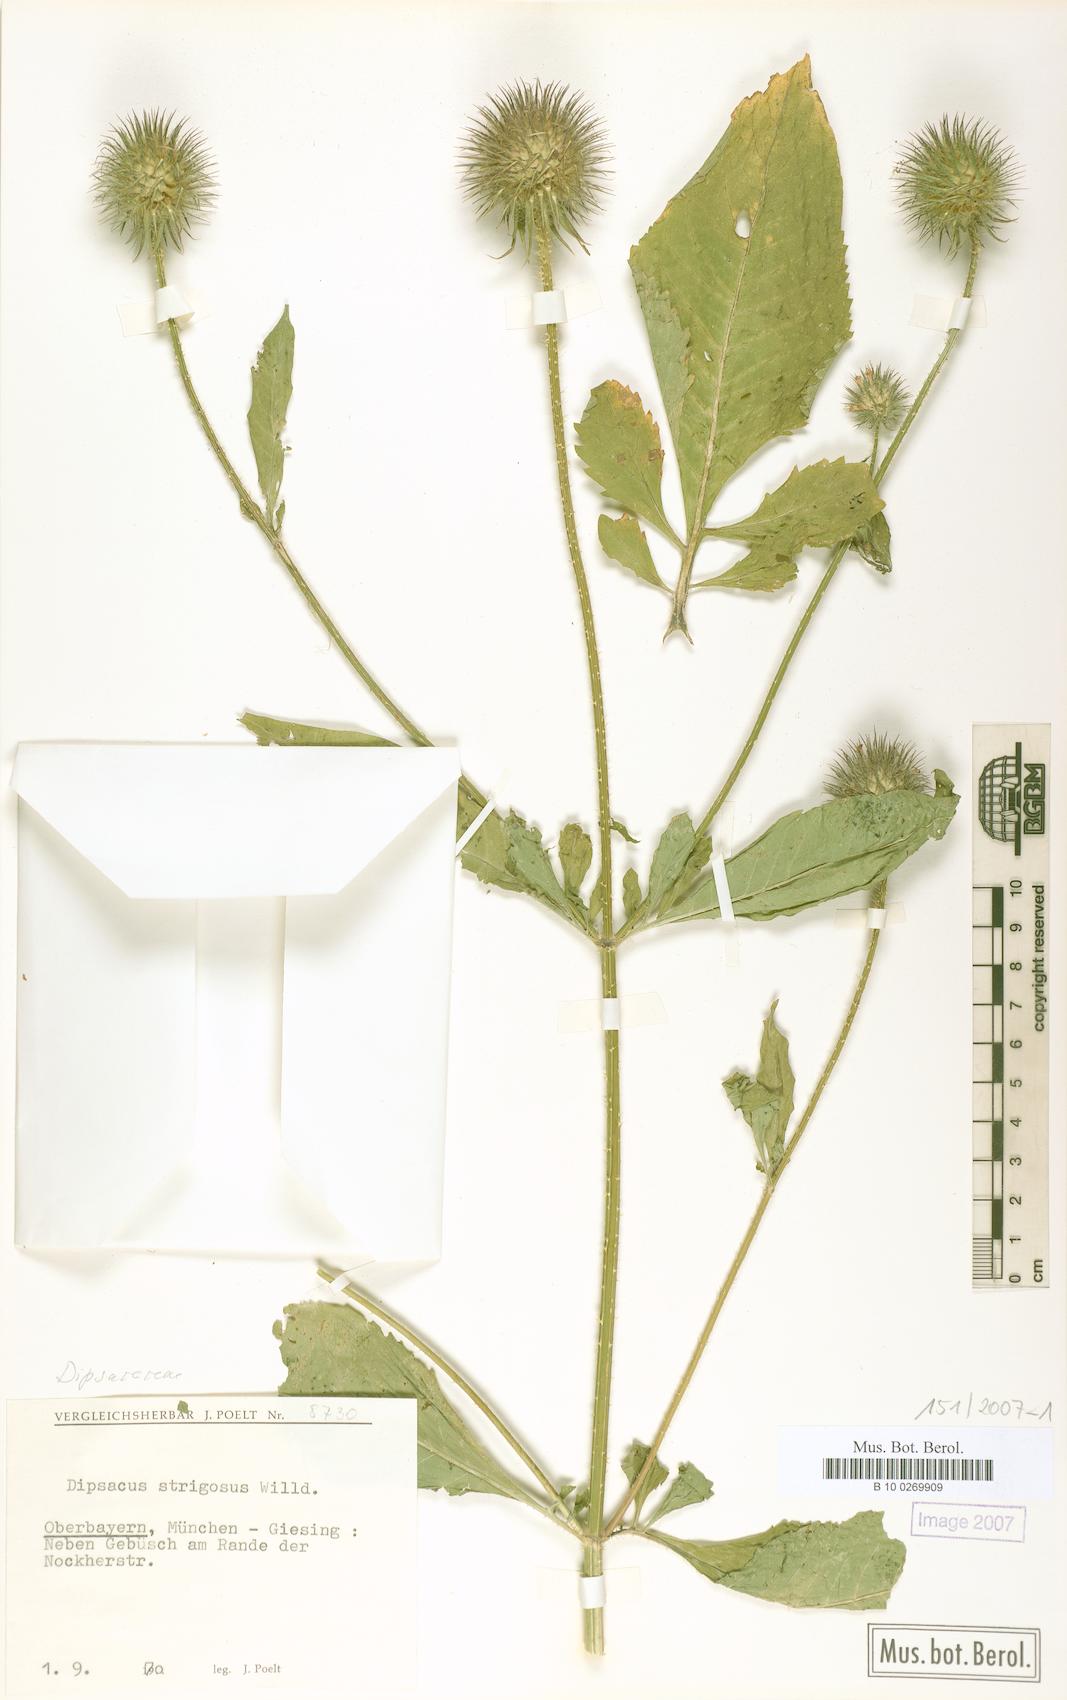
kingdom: Plantae
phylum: Tracheophyta
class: Magnoliopsida
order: Dipsacales
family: Caprifoliaceae
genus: Dipsacus
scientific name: Dipsacus strigosus
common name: Yellow-flowered teasel
